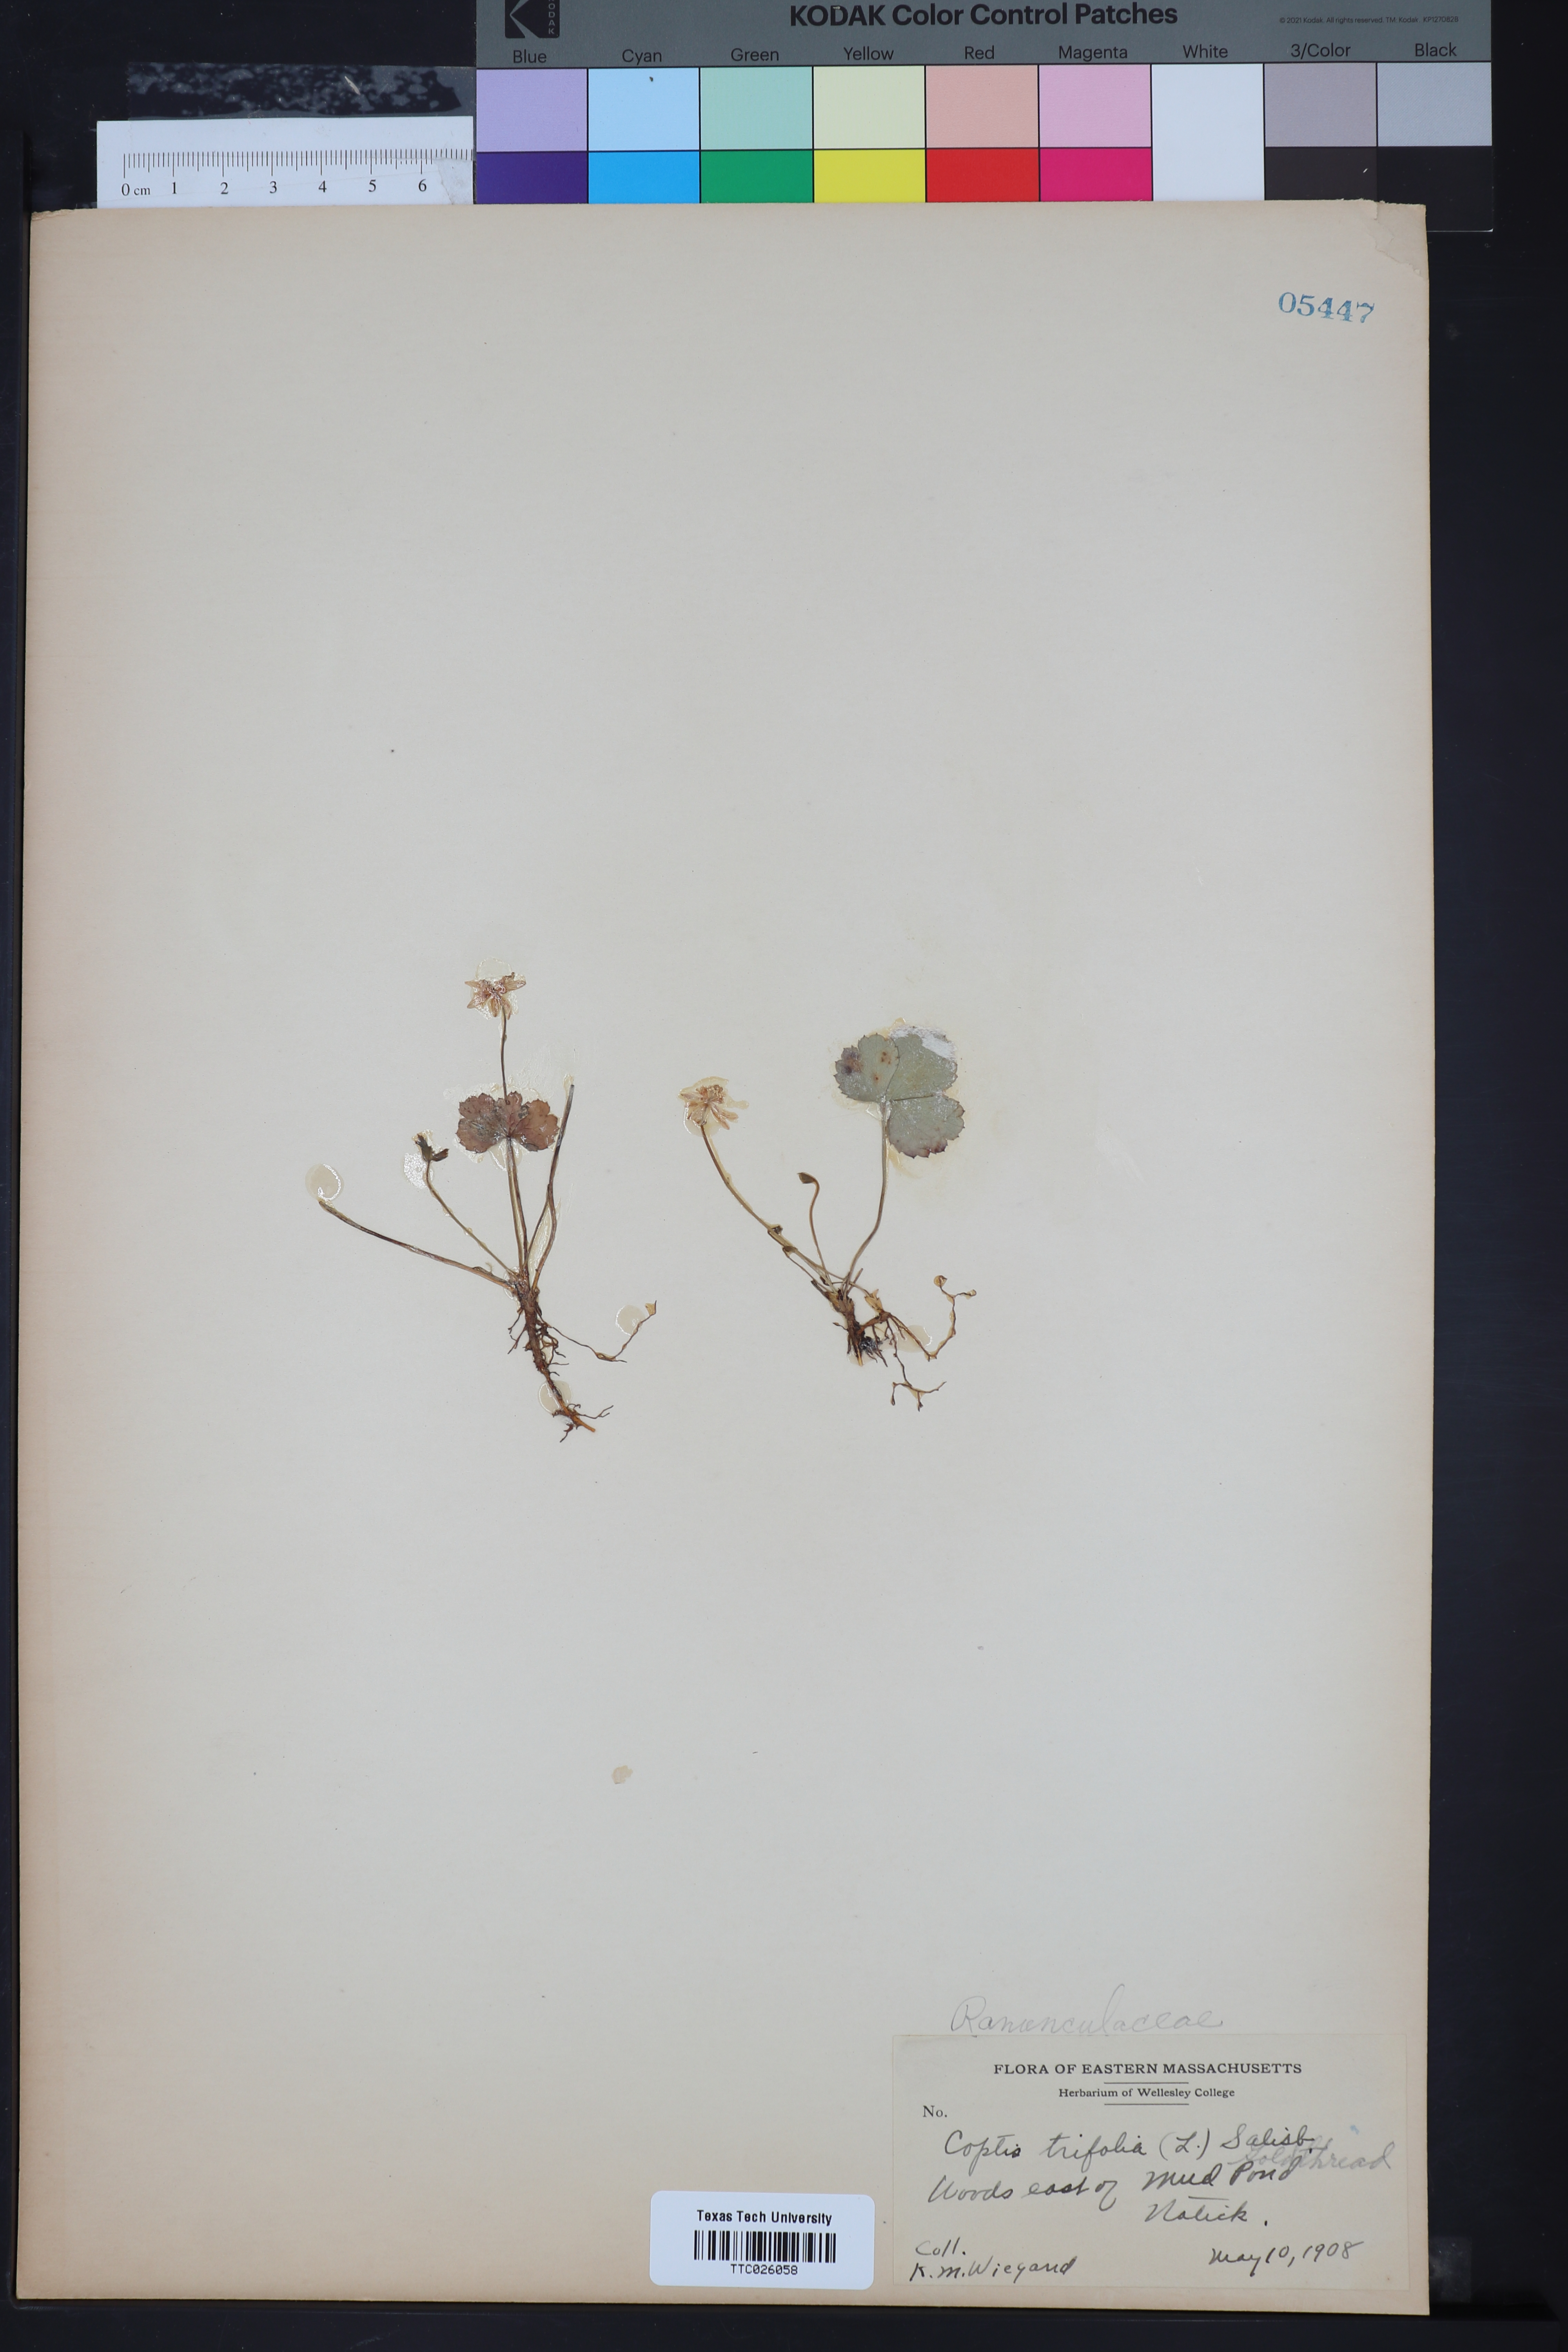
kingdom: Plantae
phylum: Tracheophyta
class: Magnoliopsida
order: Ranunculales
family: Ranunculaceae
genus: Coptis
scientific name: Coptis trifolia
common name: Canker-root
